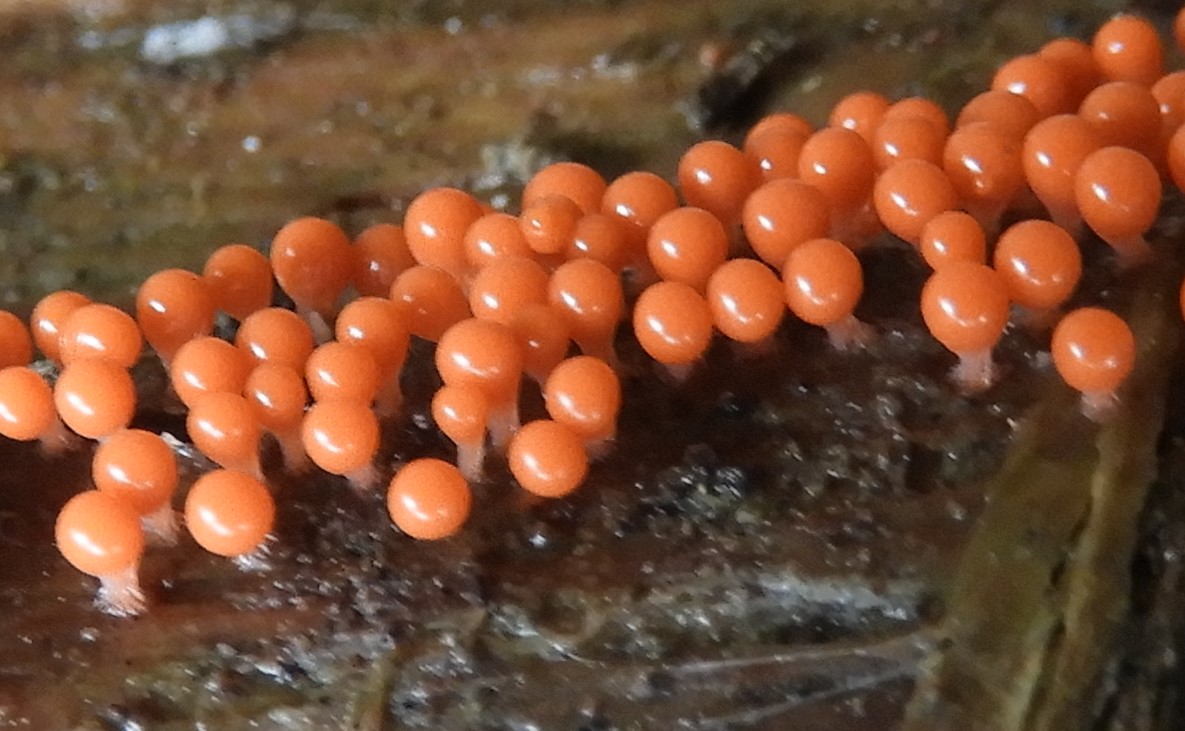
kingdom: Protozoa
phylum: Mycetozoa
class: Myxomycetes
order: Trichiales
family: Trichiaceae
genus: Trichia
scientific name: Trichia
